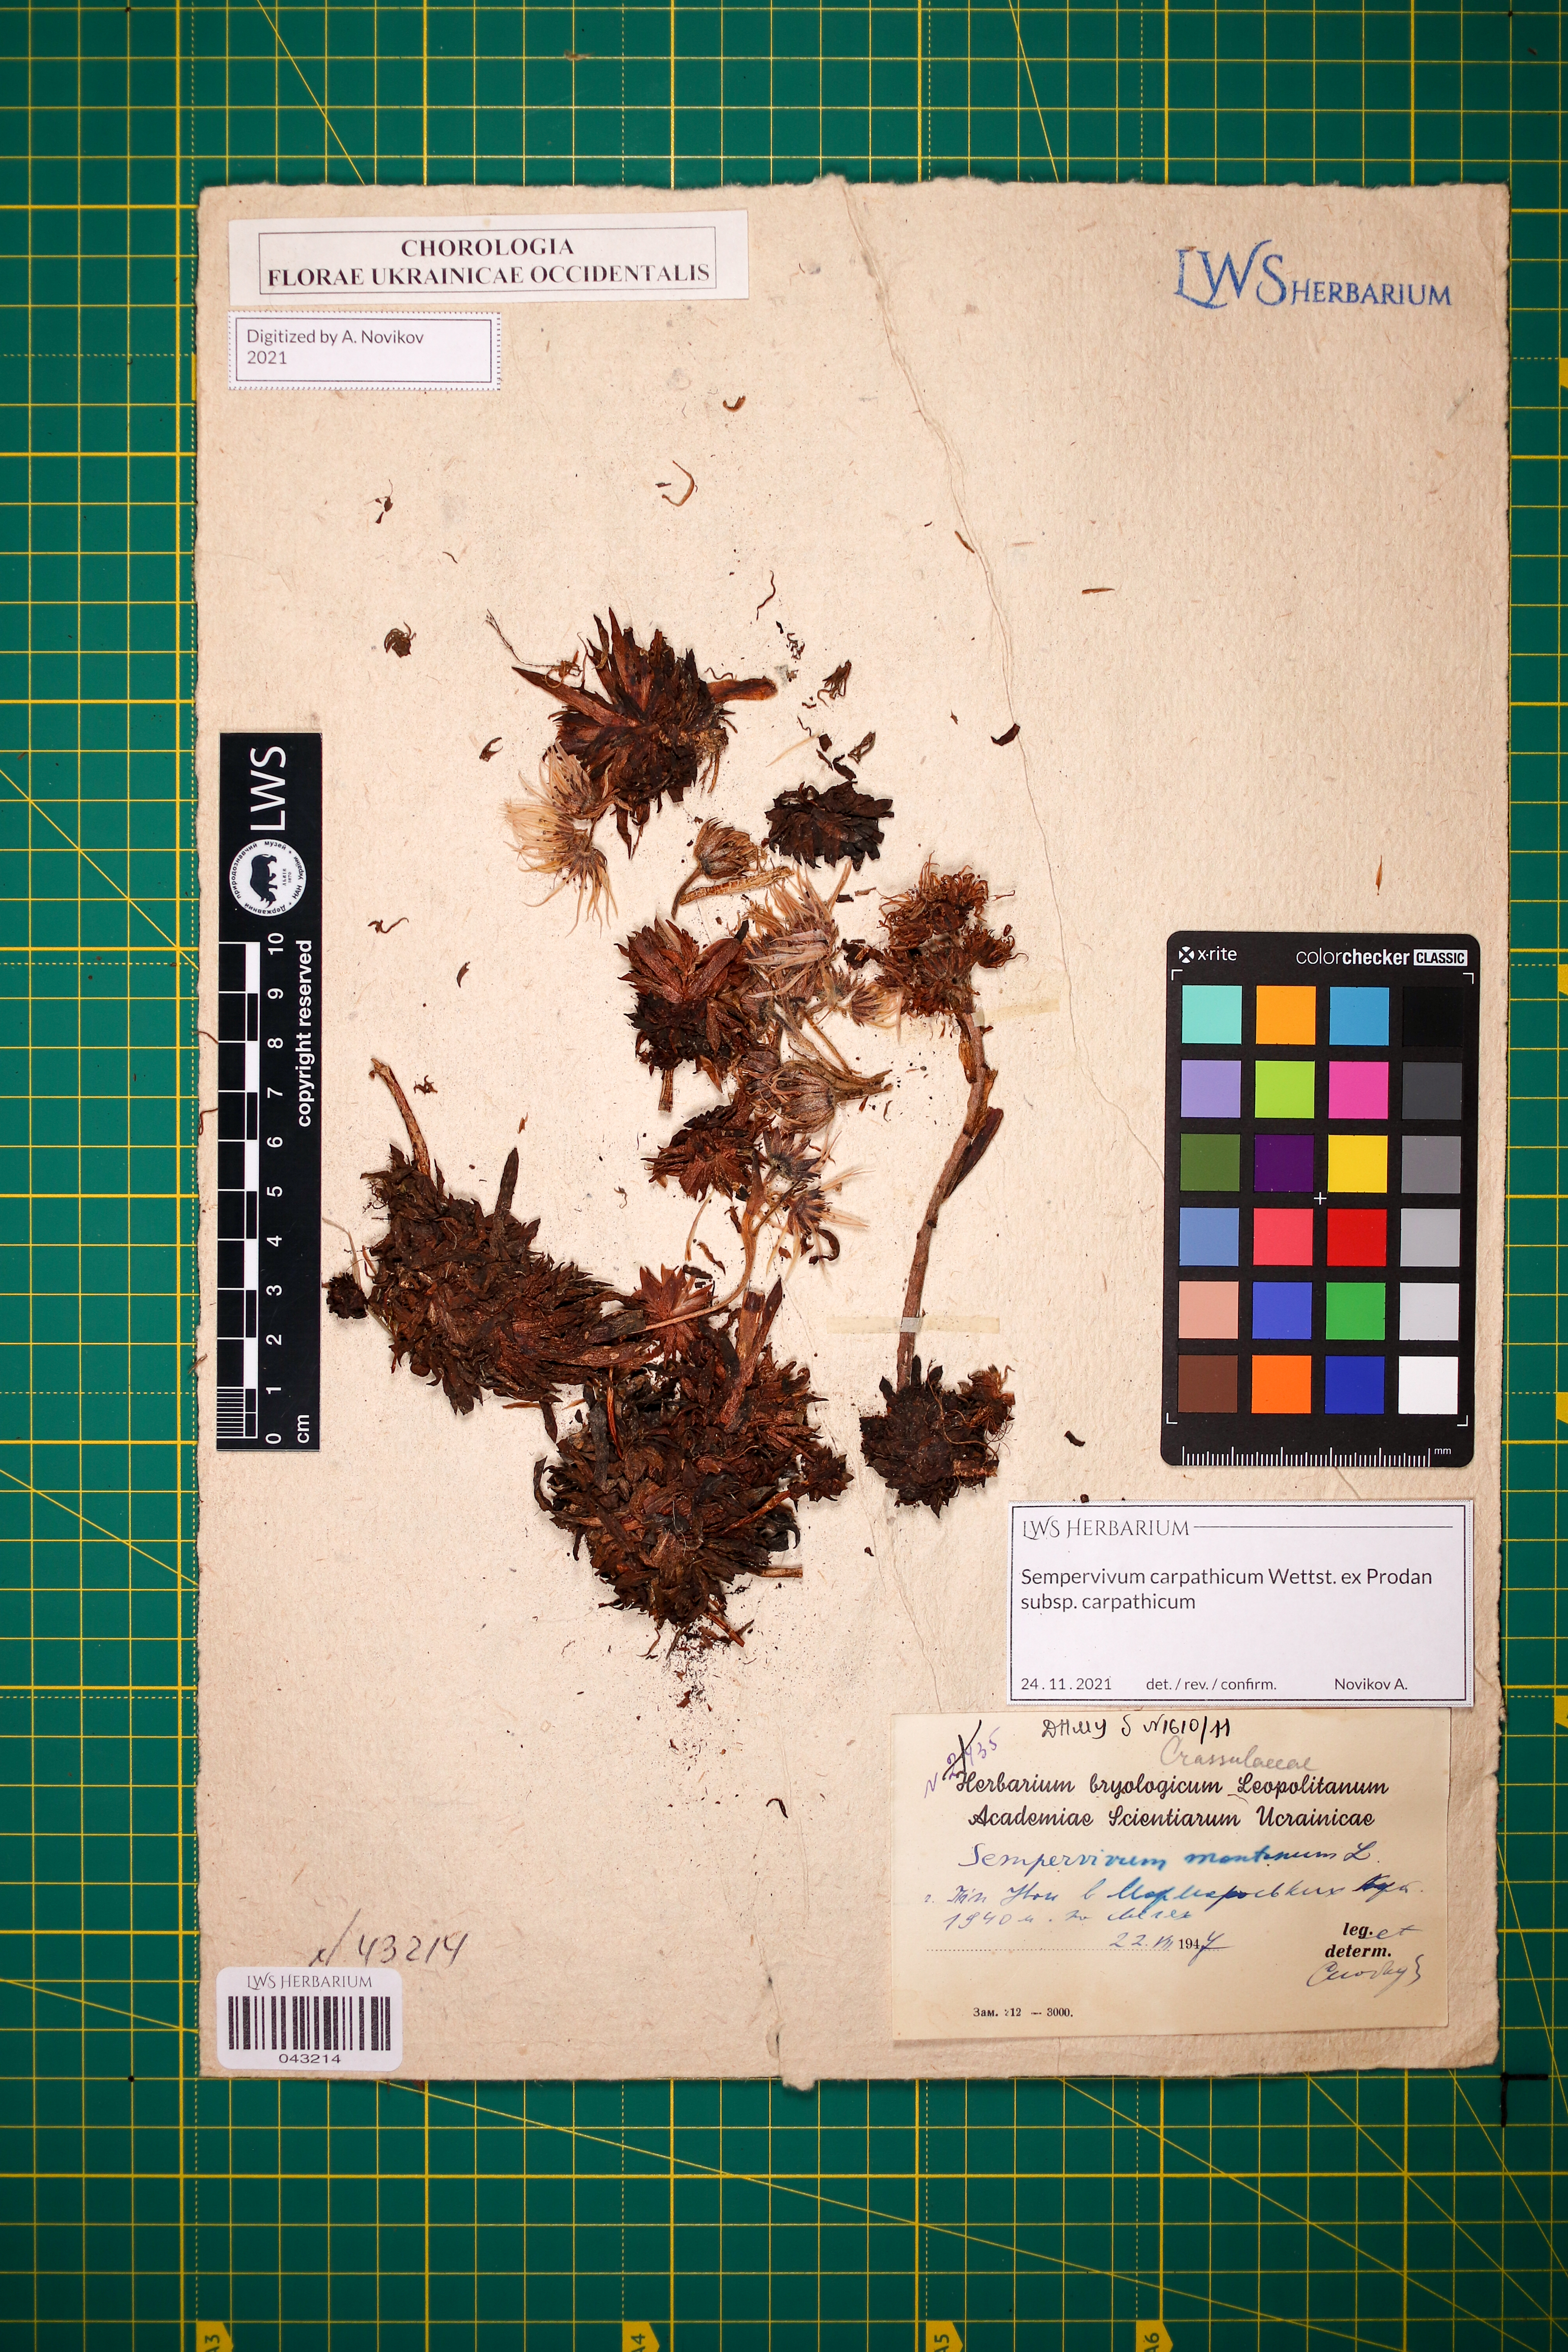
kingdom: Plantae
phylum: Tracheophyta
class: Magnoliopsida
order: Saxifragales
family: Crassulaceae
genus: Sempervivum
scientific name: Sempervivum montanum
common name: Mountain house-leek
